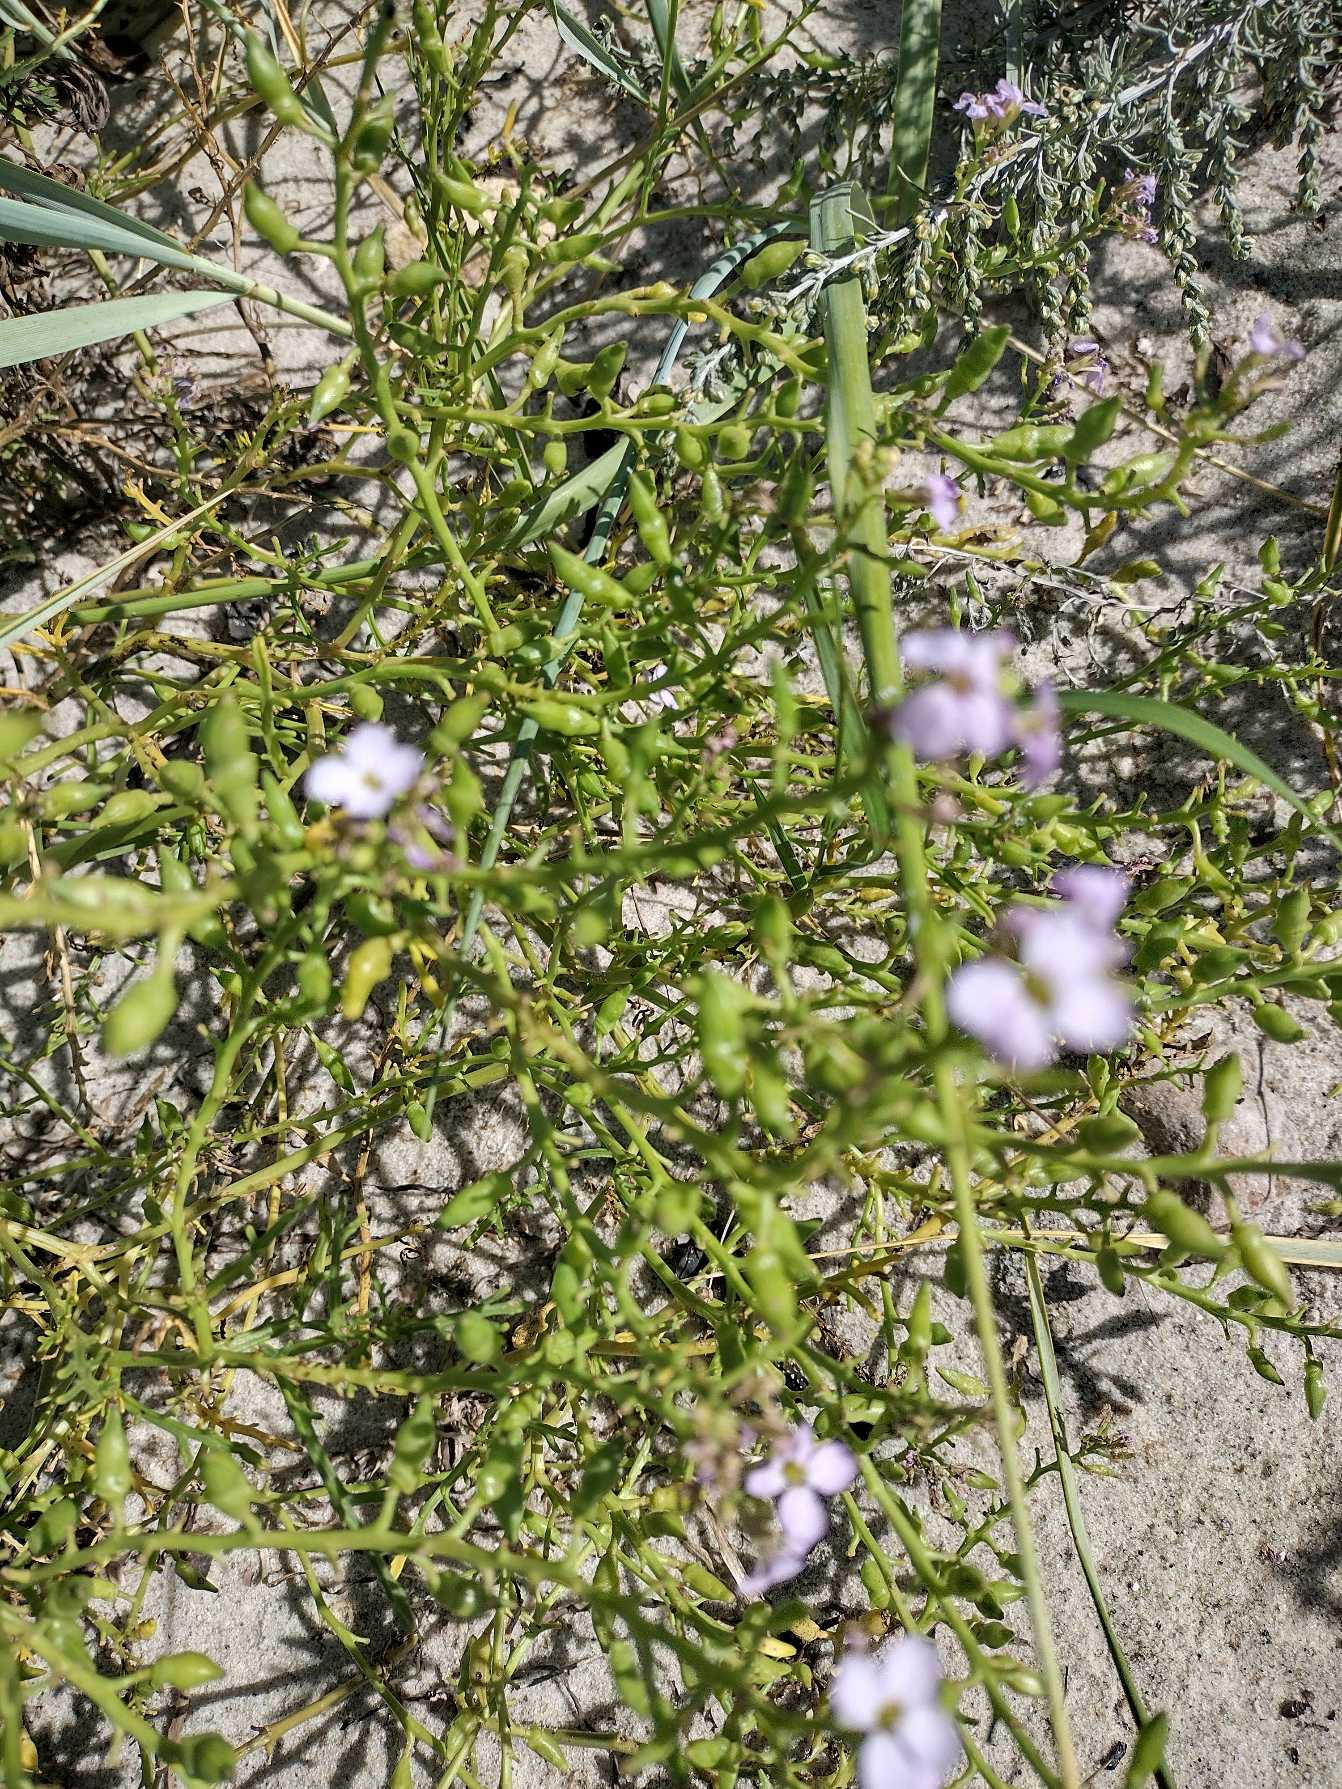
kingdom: Plantae
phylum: Tracheophyta
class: Magnoliopsida
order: Brassicales
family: Brassicaceae
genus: Cakile
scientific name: Cakile maritima
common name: Strandsennep
